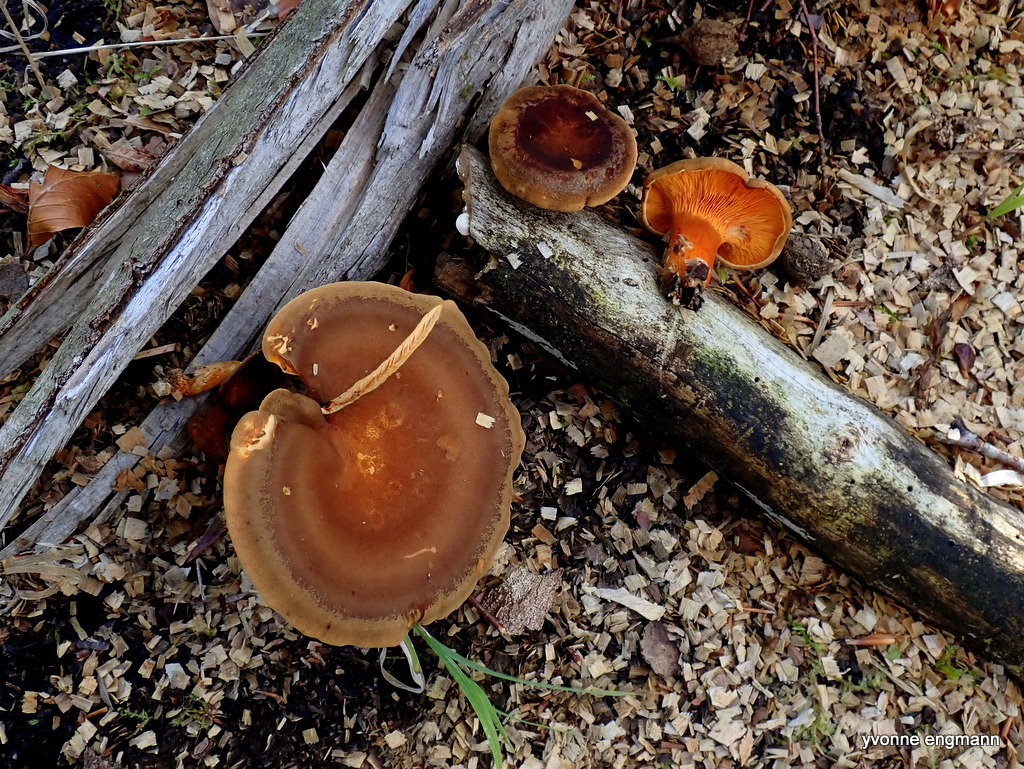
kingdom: Fungi
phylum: Basidiomycota
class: Agaricomycetes
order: Boletales
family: Hygrophoropsidaceae
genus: Hygrophoropsis
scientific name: Hygrophoropsis rufa
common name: brunfiltet orangekantarel
